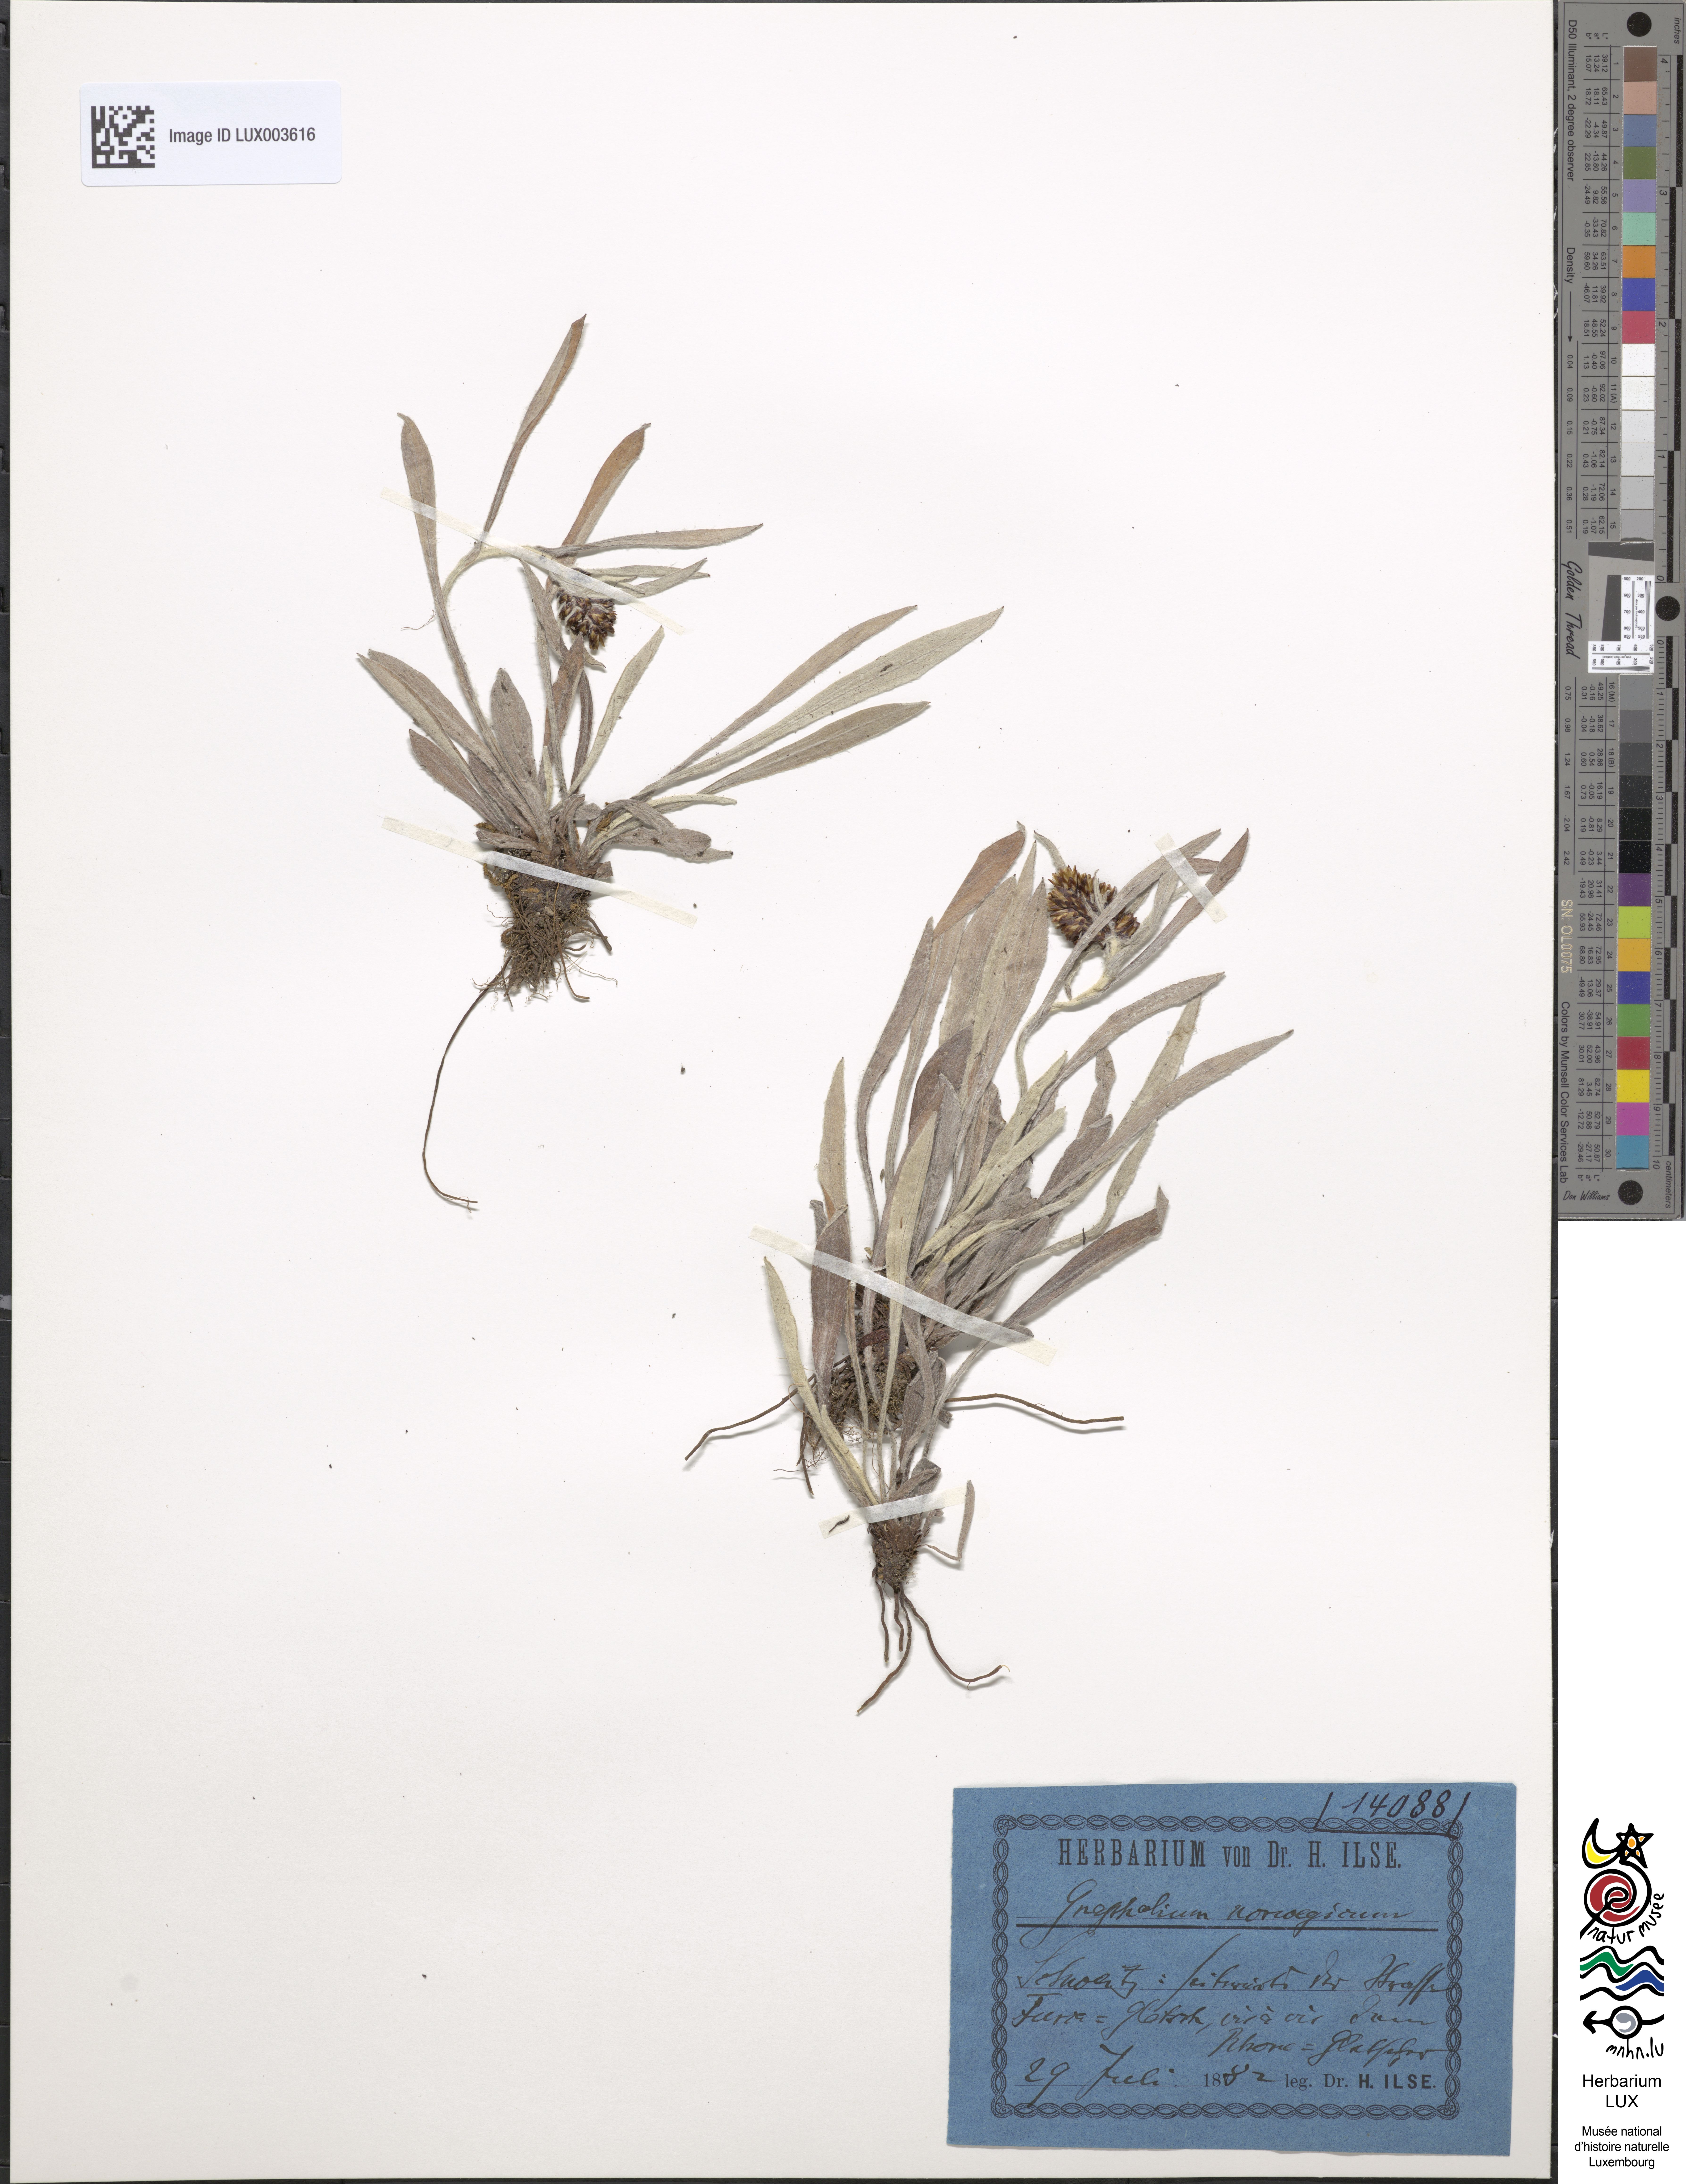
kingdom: Plantae
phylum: Tracheophyta
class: Magnoliopsida
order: Asterales
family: Asteraceae
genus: Omalotheca
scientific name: Omalotheca norvegica
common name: Norwegian arctic-cudweed
